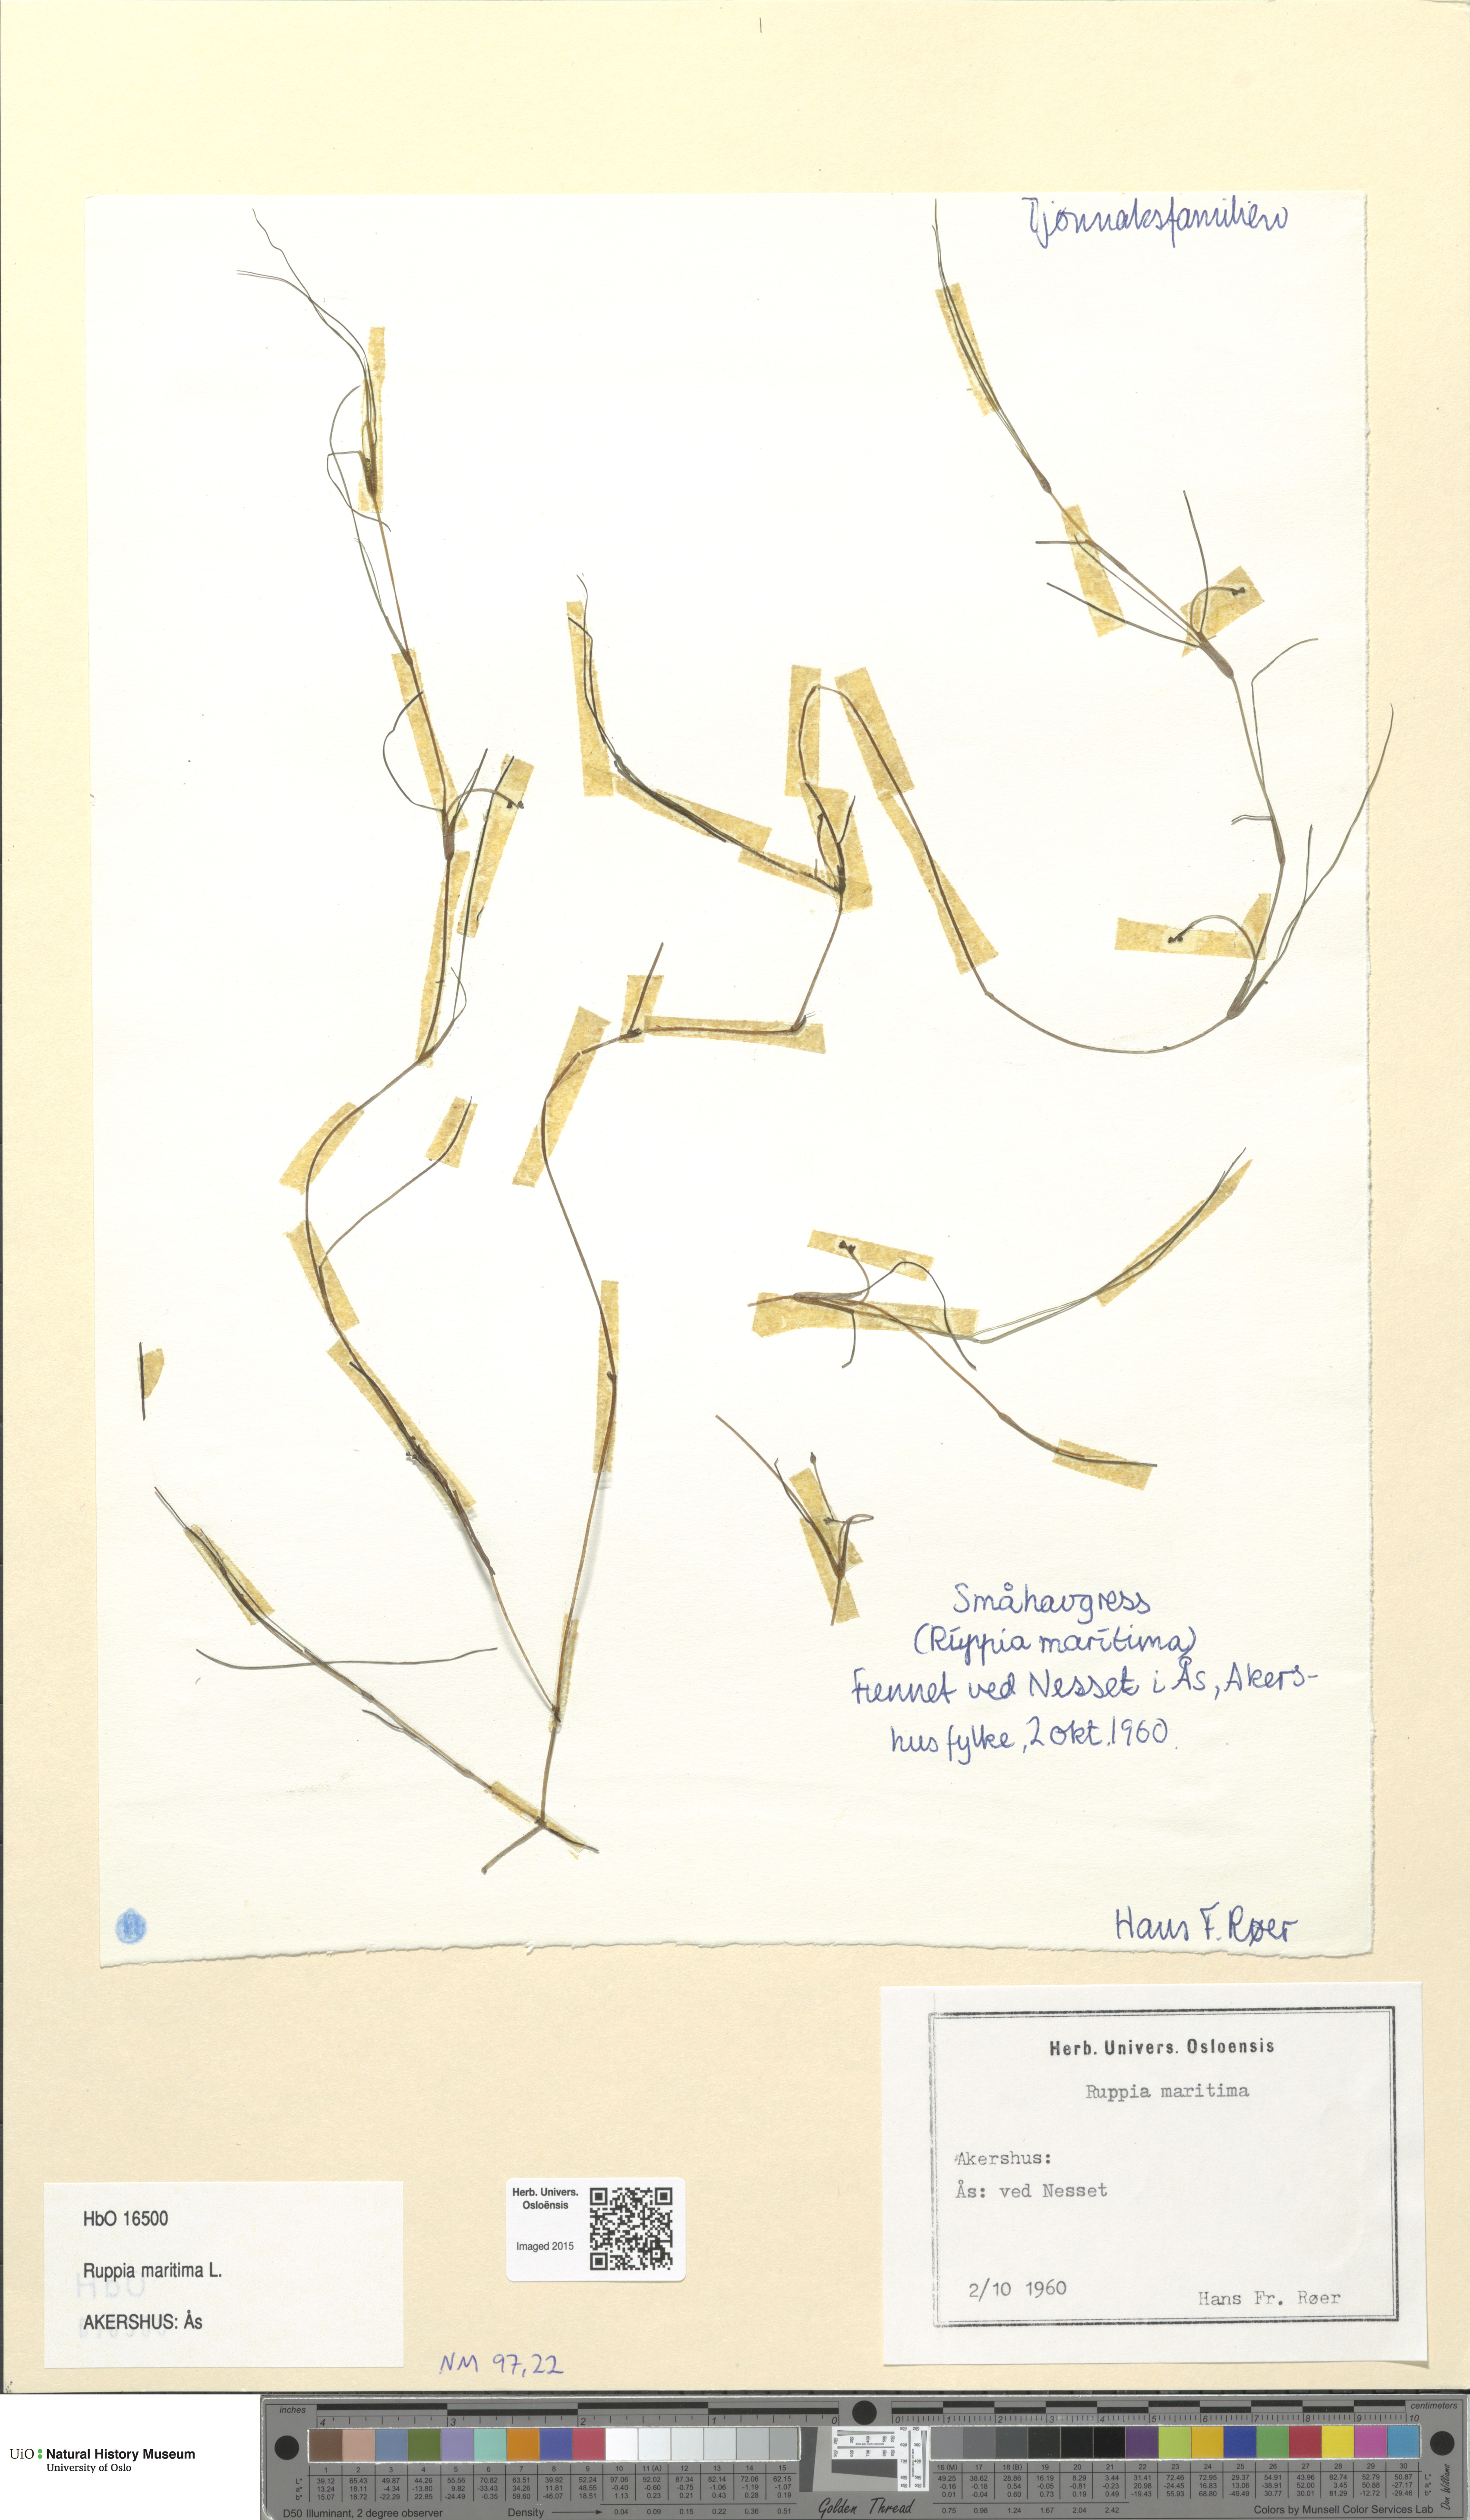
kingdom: Plantae
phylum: Tracheophyta
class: Liliopsida
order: Alismatales
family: Ruppiaceae
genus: Ruppia
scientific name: Ruppia maritima
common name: Beaked tasselweed
